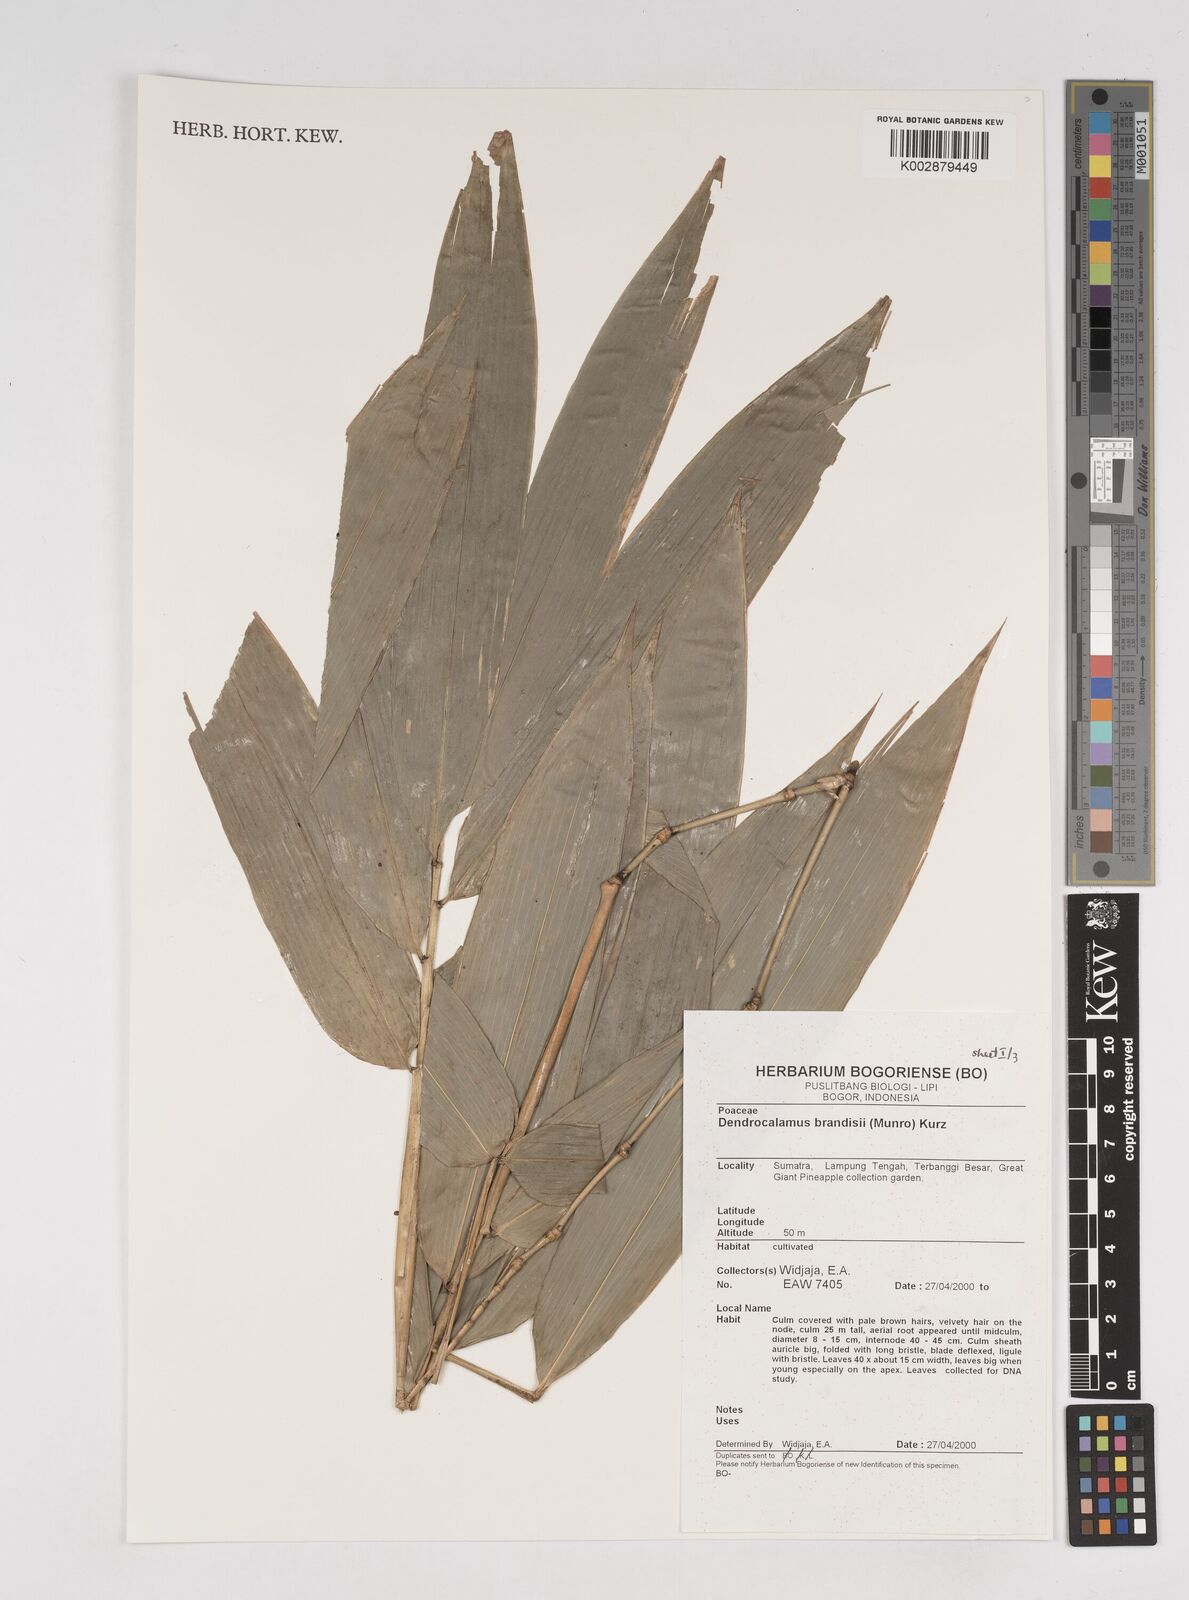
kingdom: Plantae
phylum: Tracheophyta
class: Liliopsida
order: Poales
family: Poaceae
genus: Dendrocalamus
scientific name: Dendrocalamus brandisii
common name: Velvetleaf bamboo
